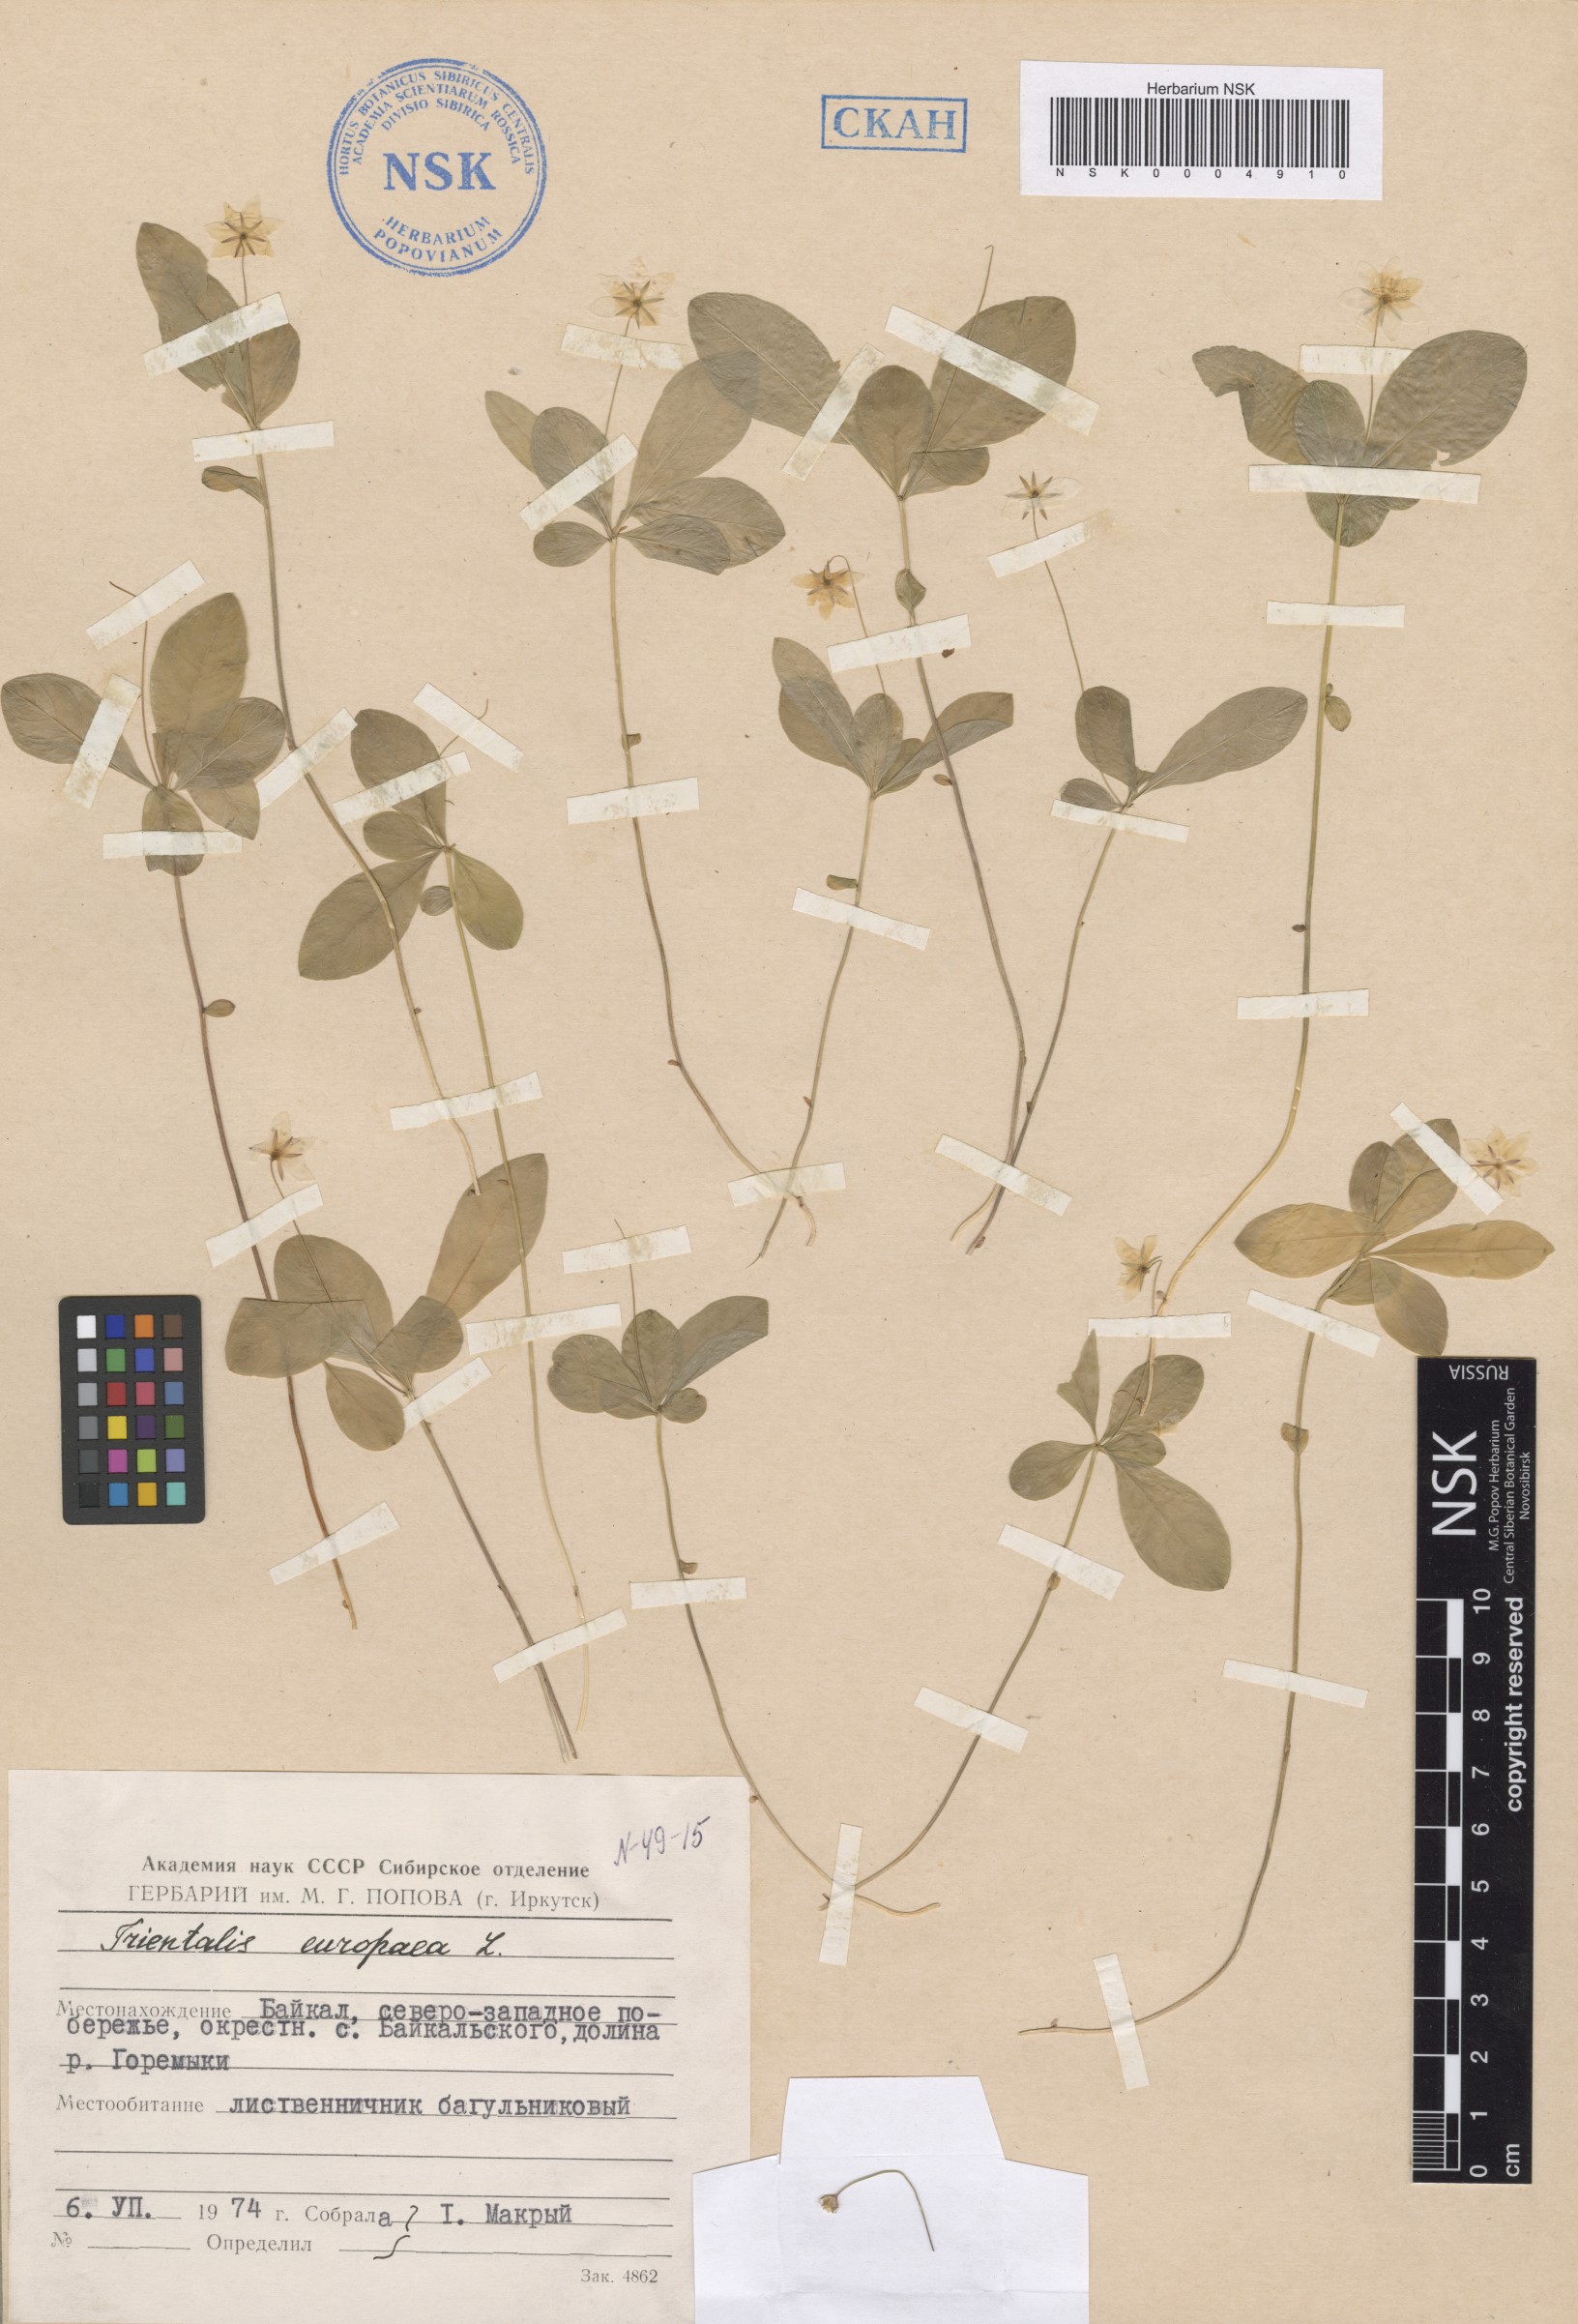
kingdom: Plantae
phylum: Tracheophyta
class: Magnoliopsida
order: Ericales
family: Primulaceae
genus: Lysimachia
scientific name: Lysimachia europaea
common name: Arctic starflower
